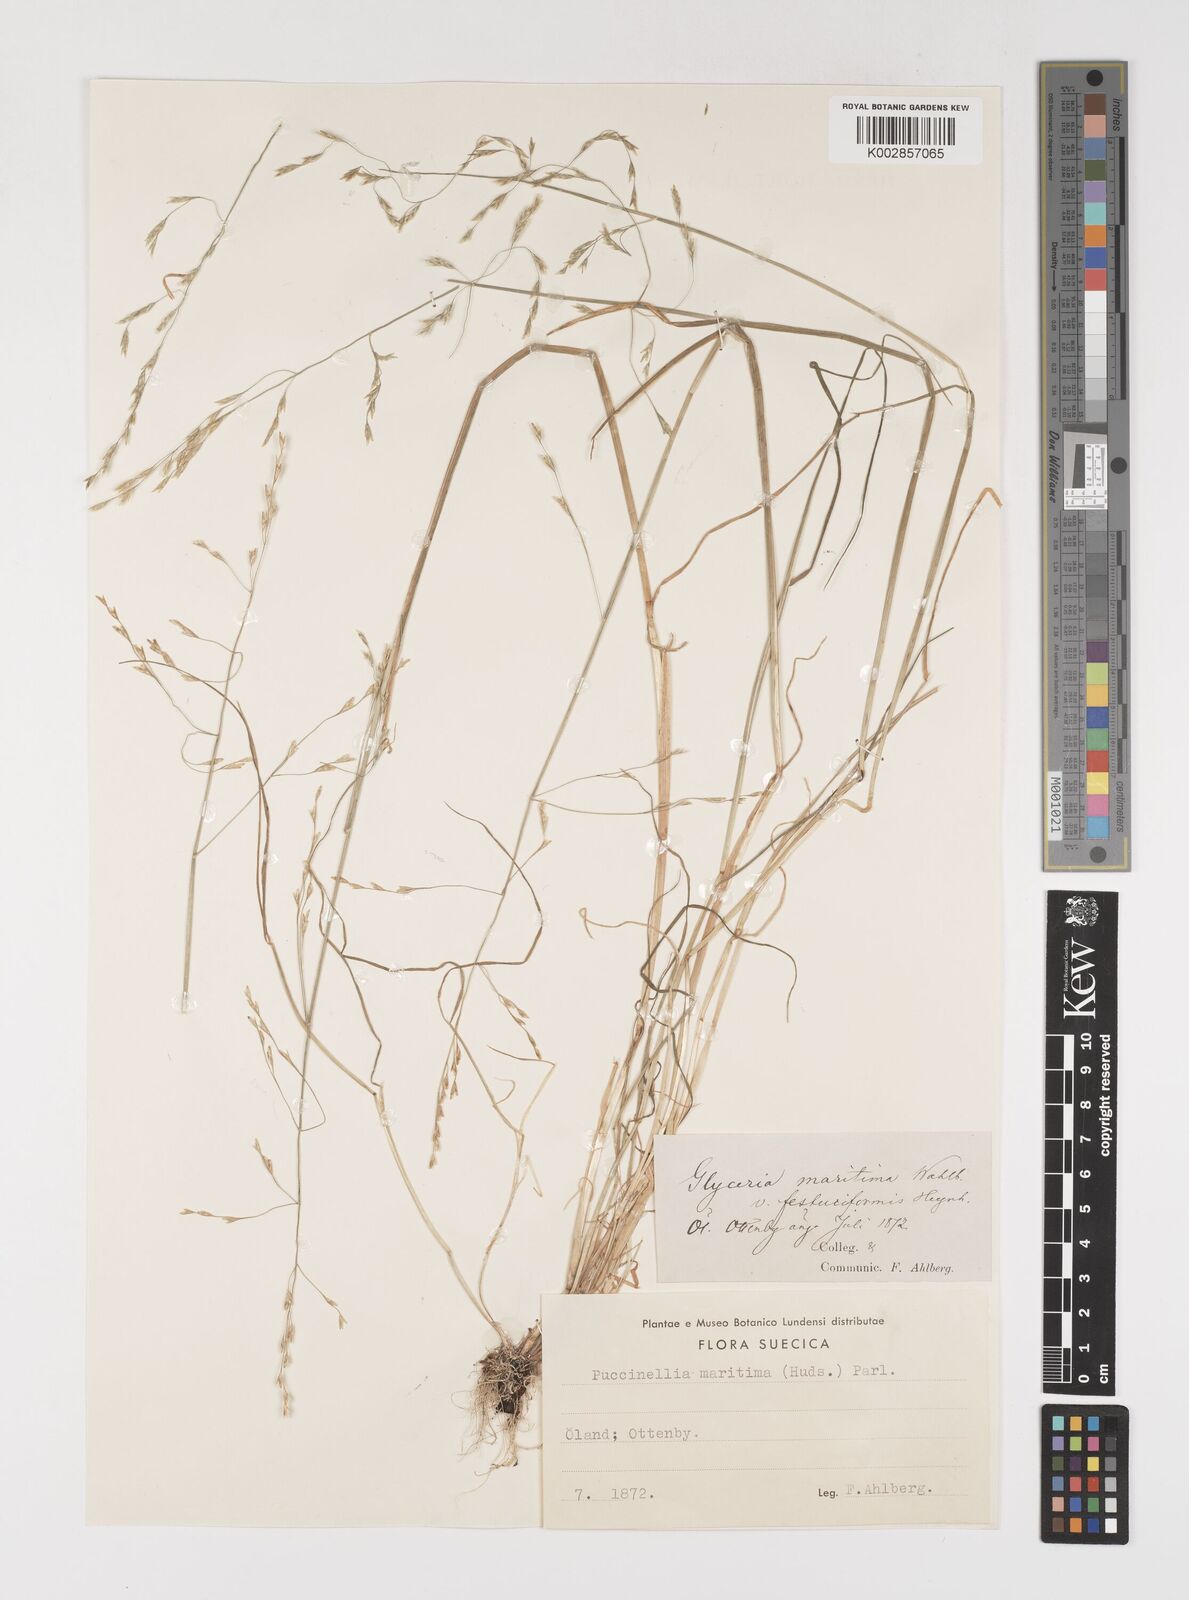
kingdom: Plantae
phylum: Tracheophyta
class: Liliopsida
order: Poales
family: Poaceae
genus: Puccinellia
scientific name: Puccinellia maritima
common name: Common saltmarsh grass
